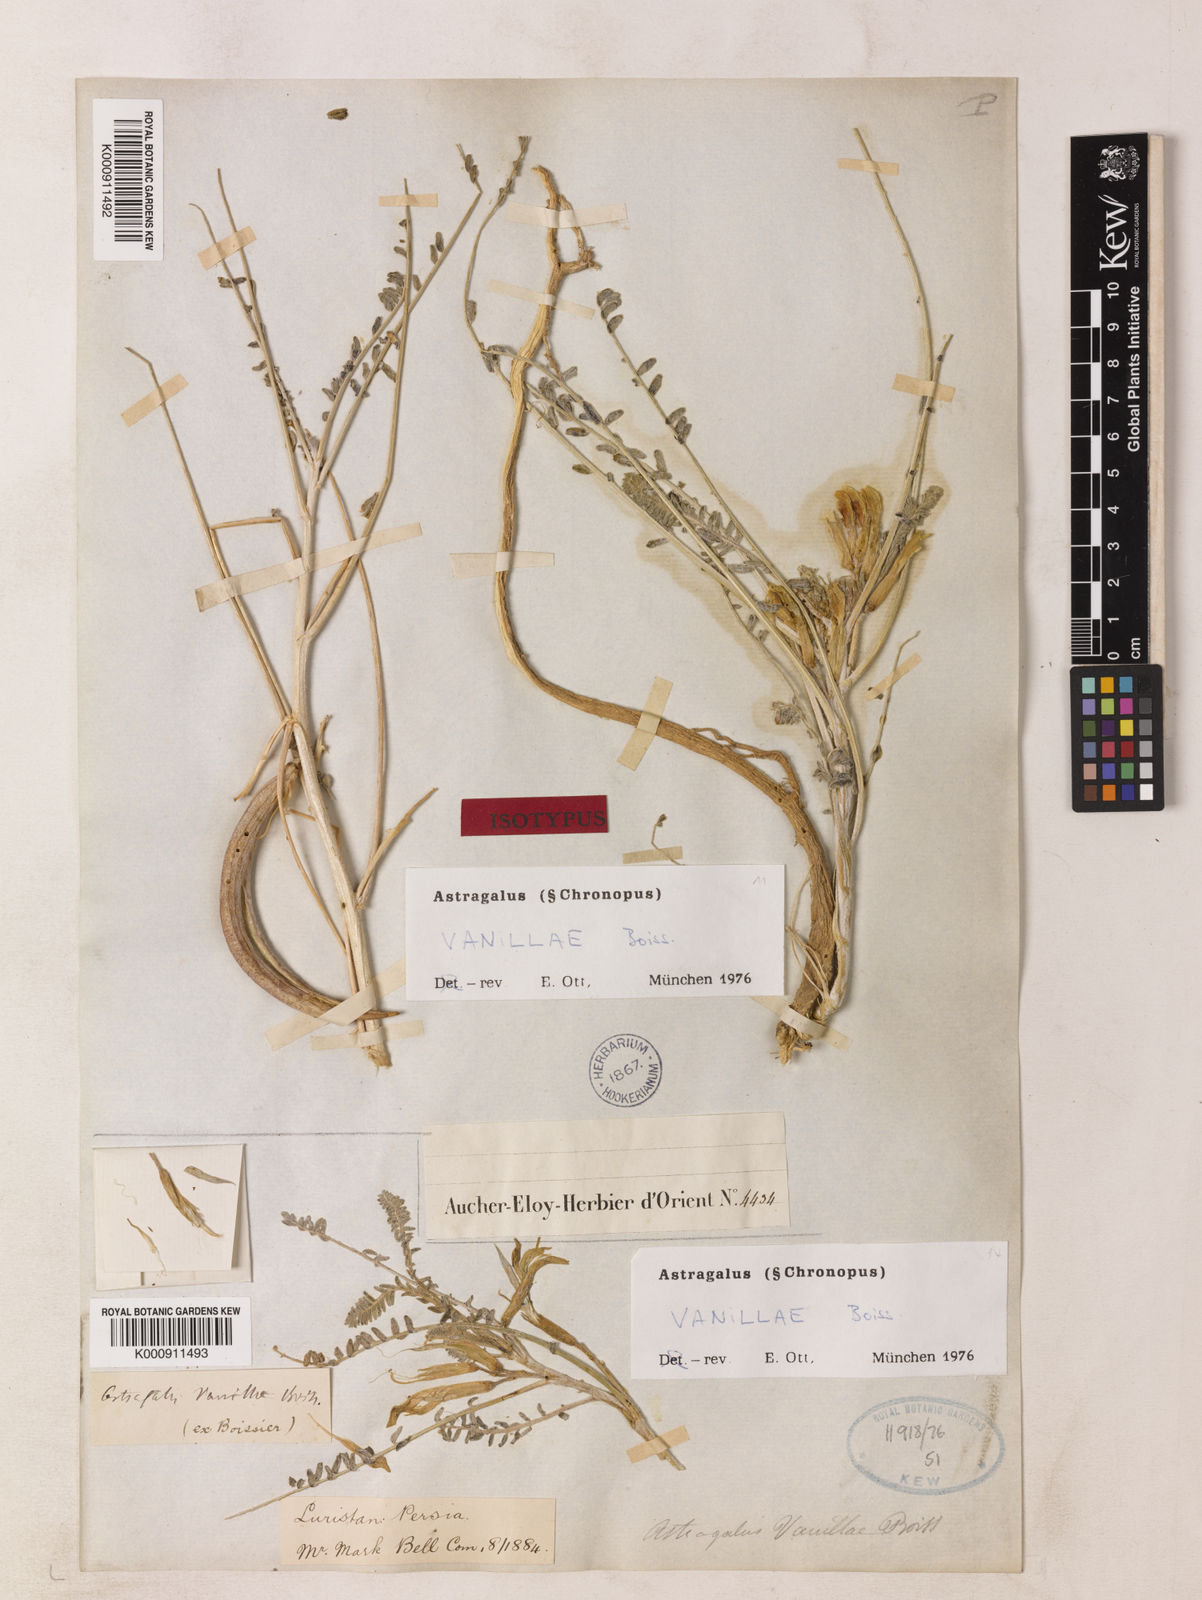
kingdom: Plantae
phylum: Tracheophyta
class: Magnoliopsida
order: Fabales
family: Fabaceae
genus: Astragalus
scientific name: Astragalus vanillae
